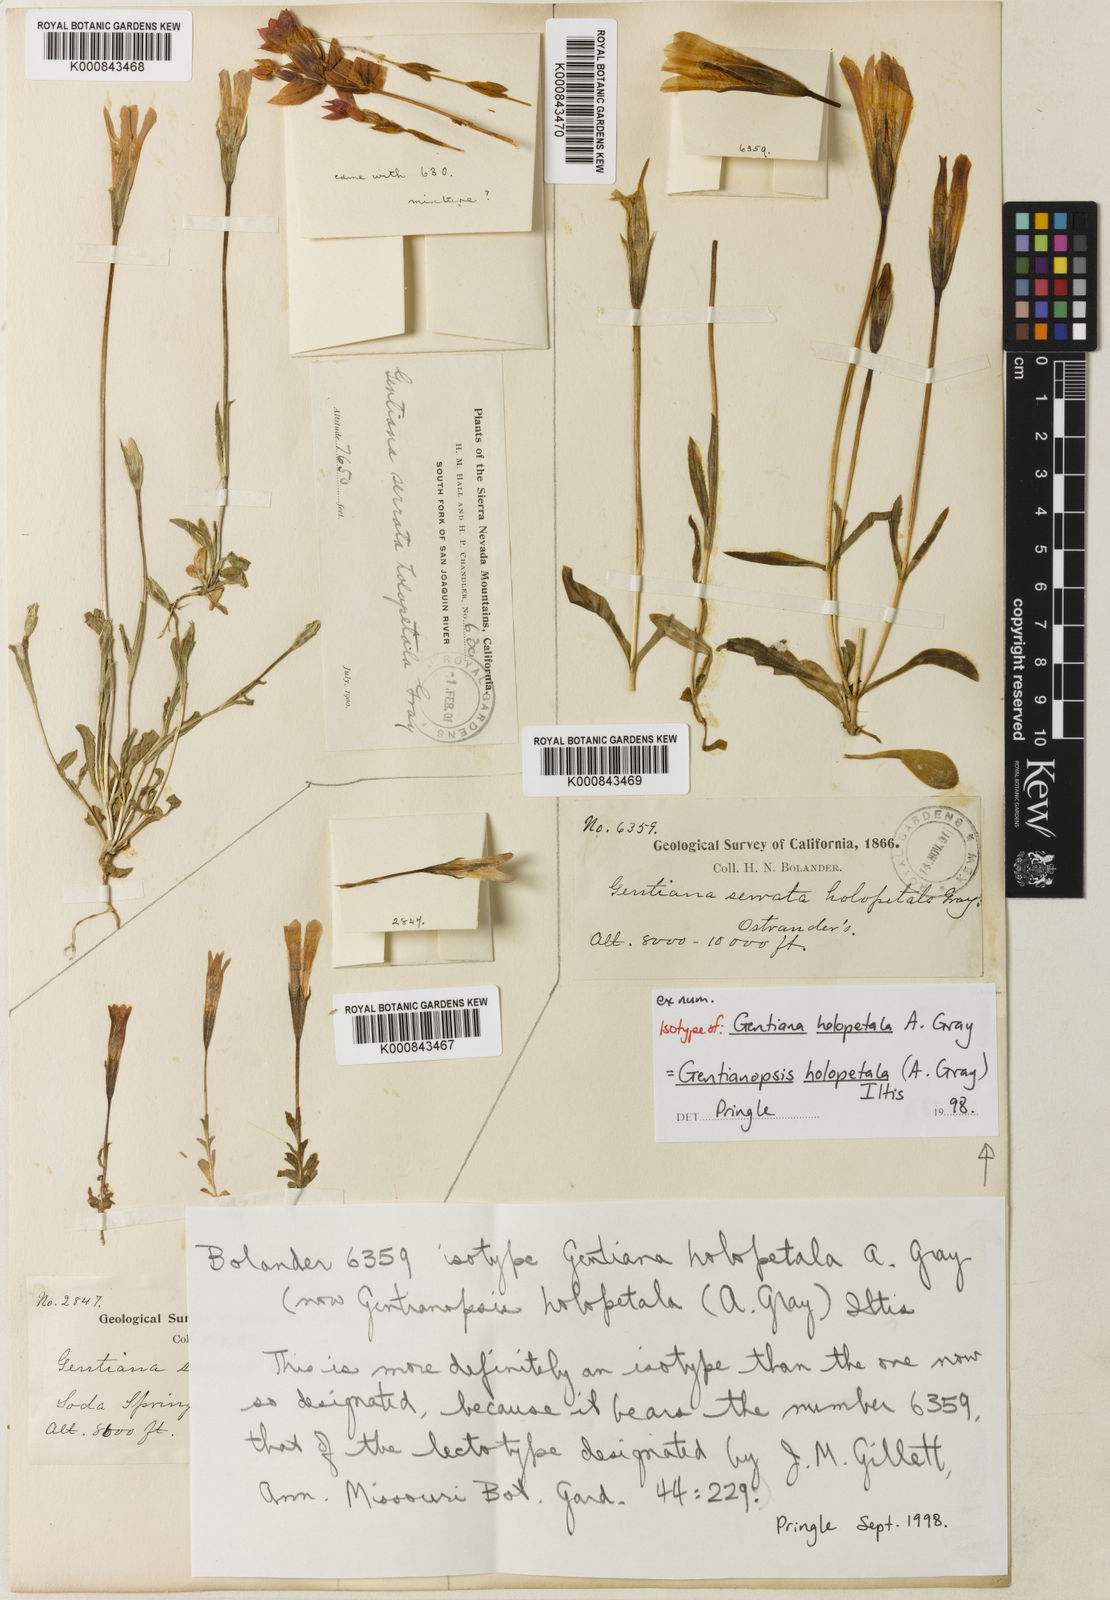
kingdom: Plantae
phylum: Tracheophyta
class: Magnoliopsida
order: Gentianales
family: Gentianaceae
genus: Gentianopsis
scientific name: Gentianopsis holopetala
